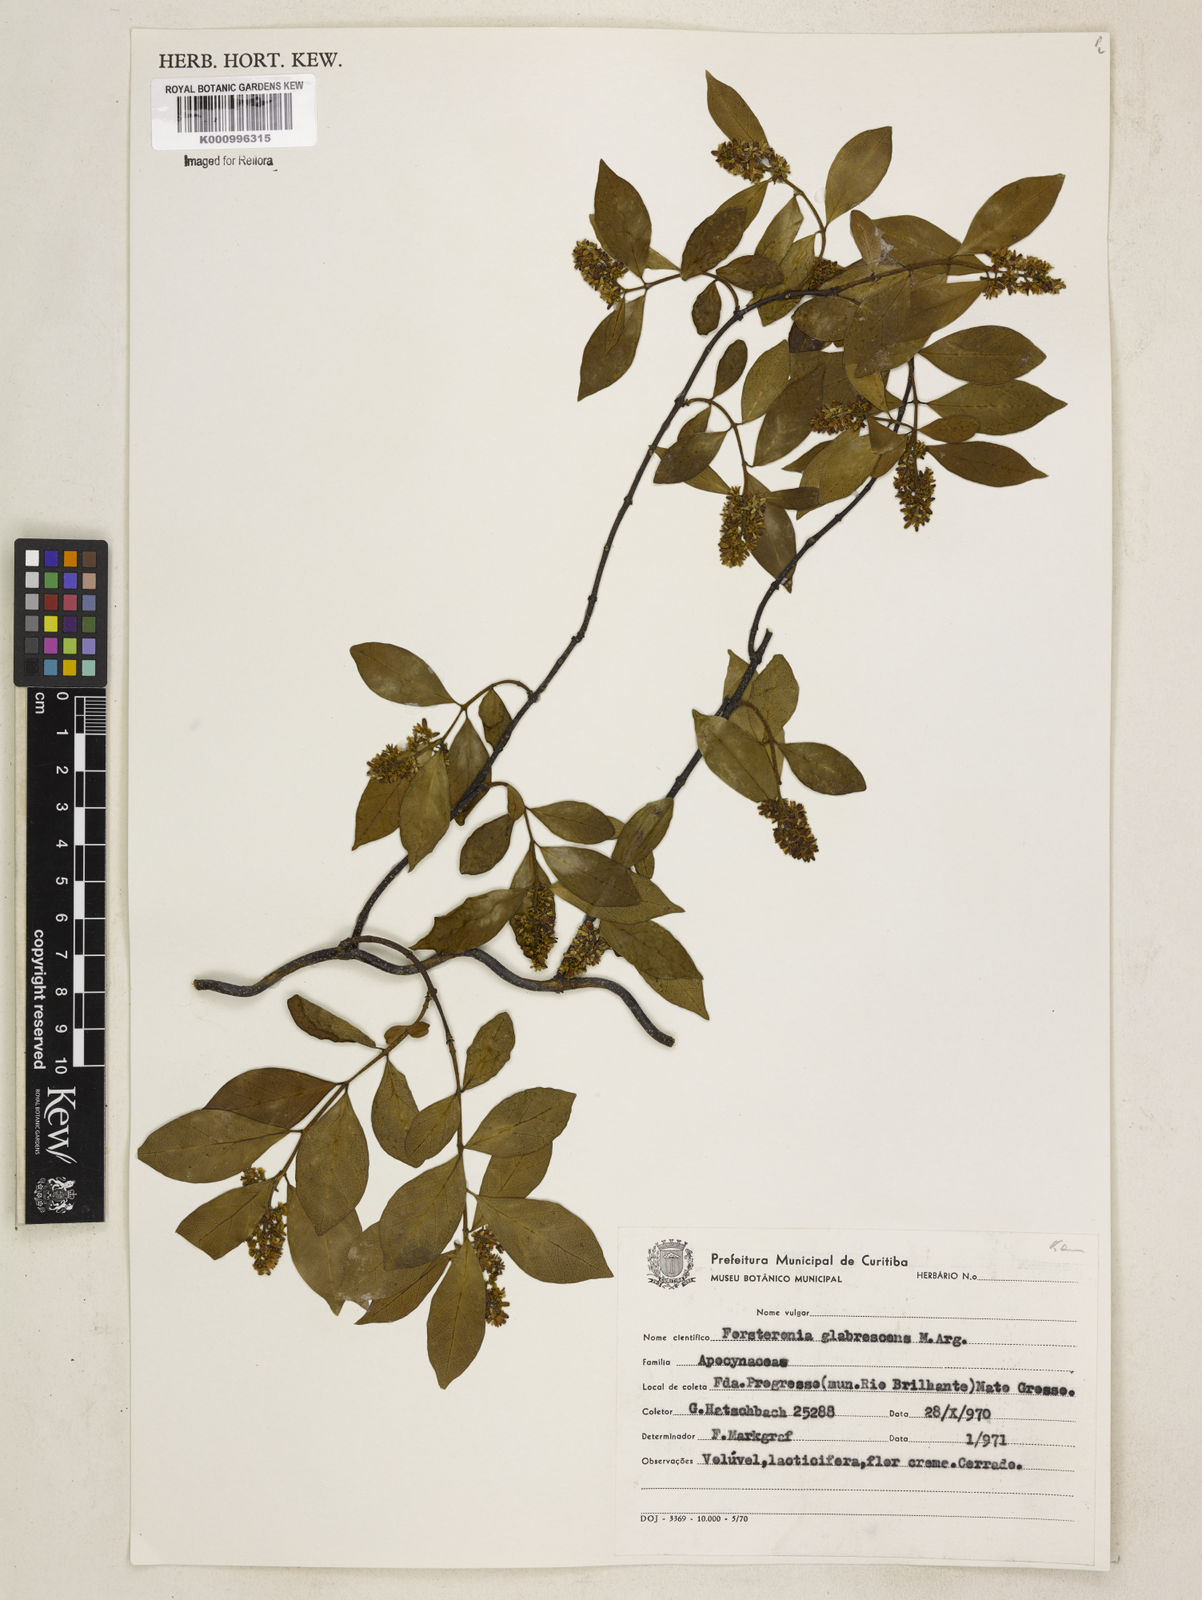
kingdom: Plantae
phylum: Tracheophyta
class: Magnoliopsida
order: Gentianales
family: Apocynaceae
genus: Forsteronia
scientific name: Forsteronia
